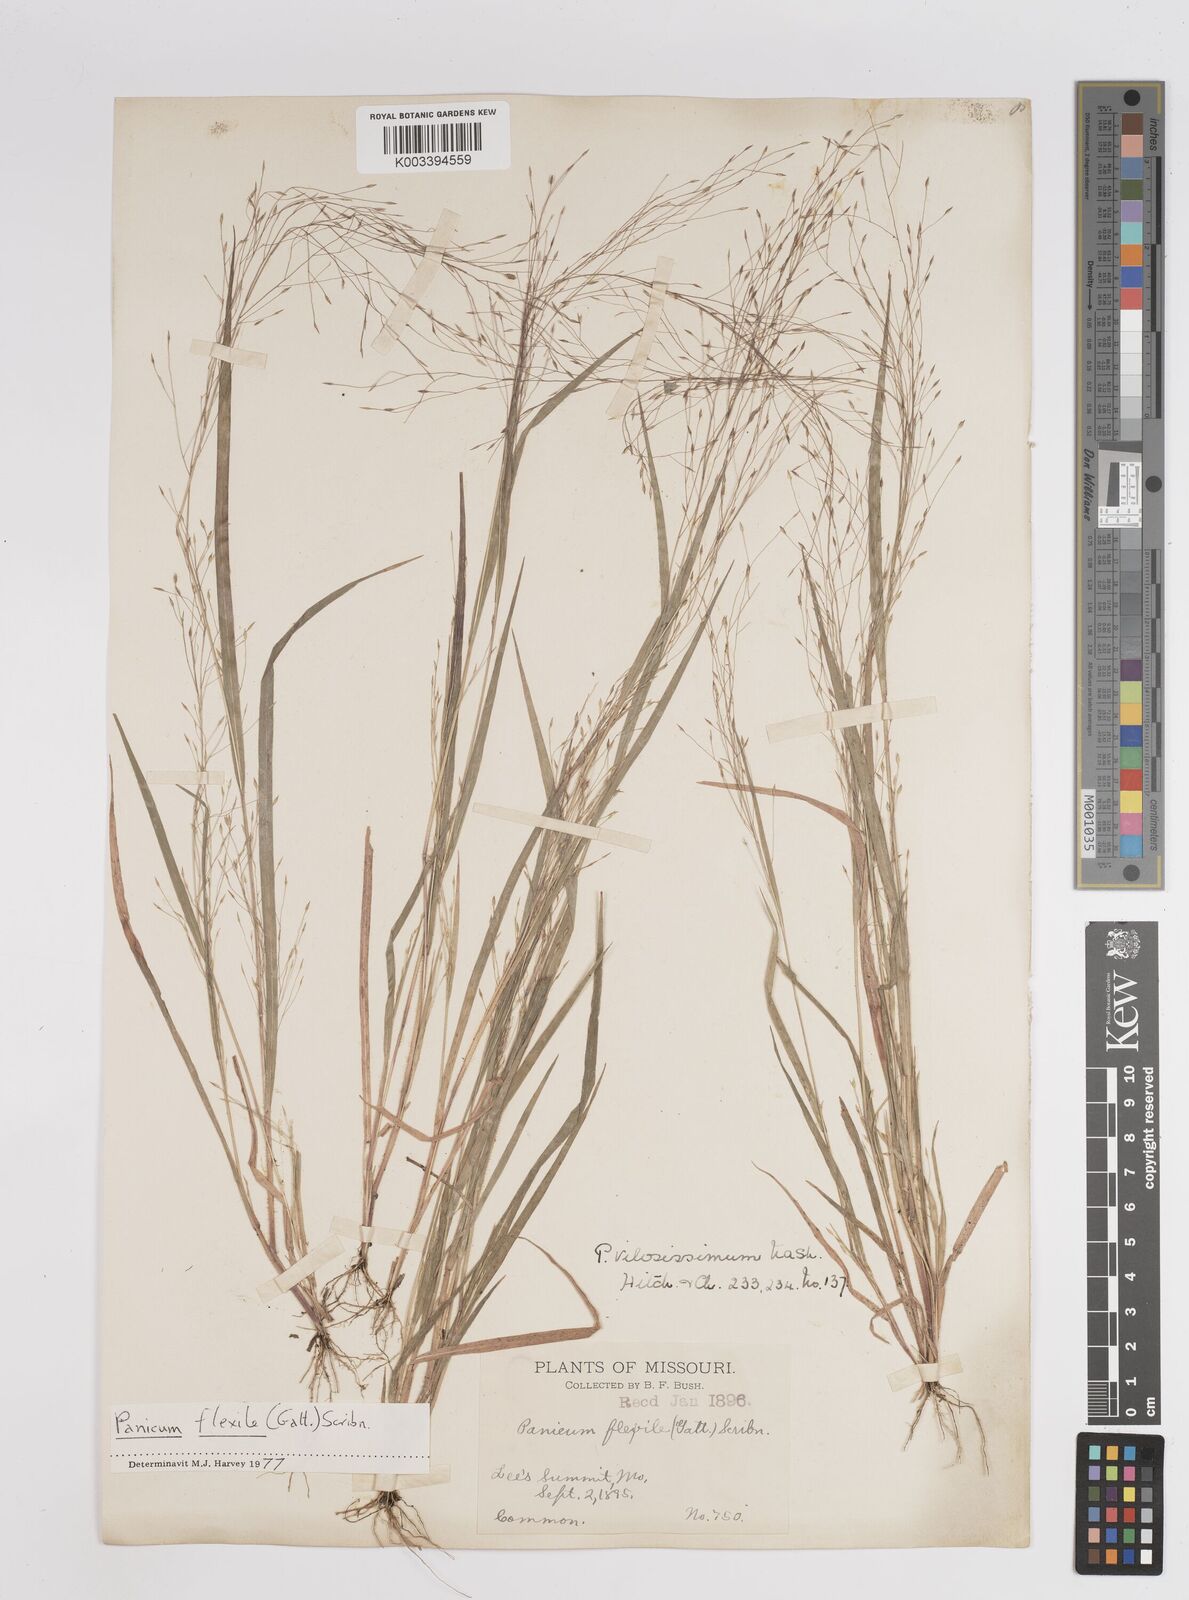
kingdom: Plantae
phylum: Tracheophyta
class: Liliopsida
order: Poales
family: Poaceae
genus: Panicum
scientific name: Panicum flexile
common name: Wiry panicgrass
